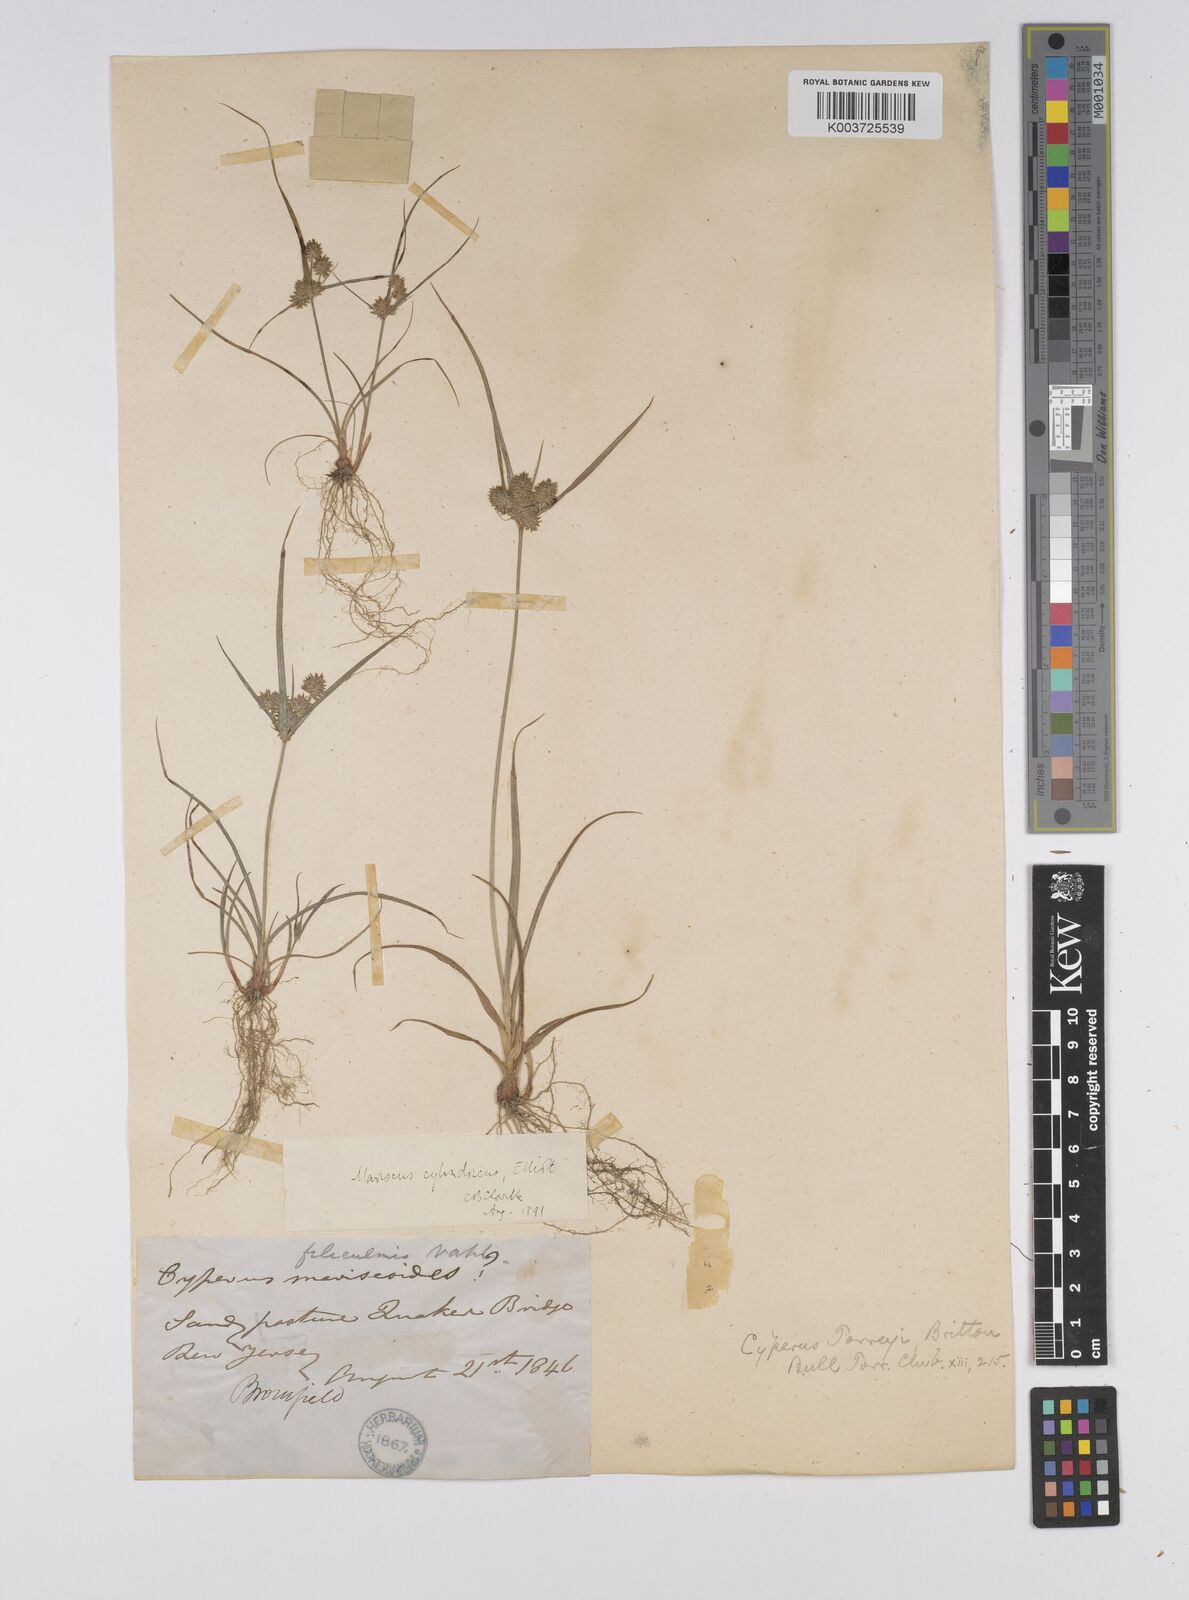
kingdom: Plantae
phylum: Tracheophyta
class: Liliopsida
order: Poales
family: Cyperaceae
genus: Cyperus
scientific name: Cyperus retrorsus
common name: Pinebarren flat sedge
